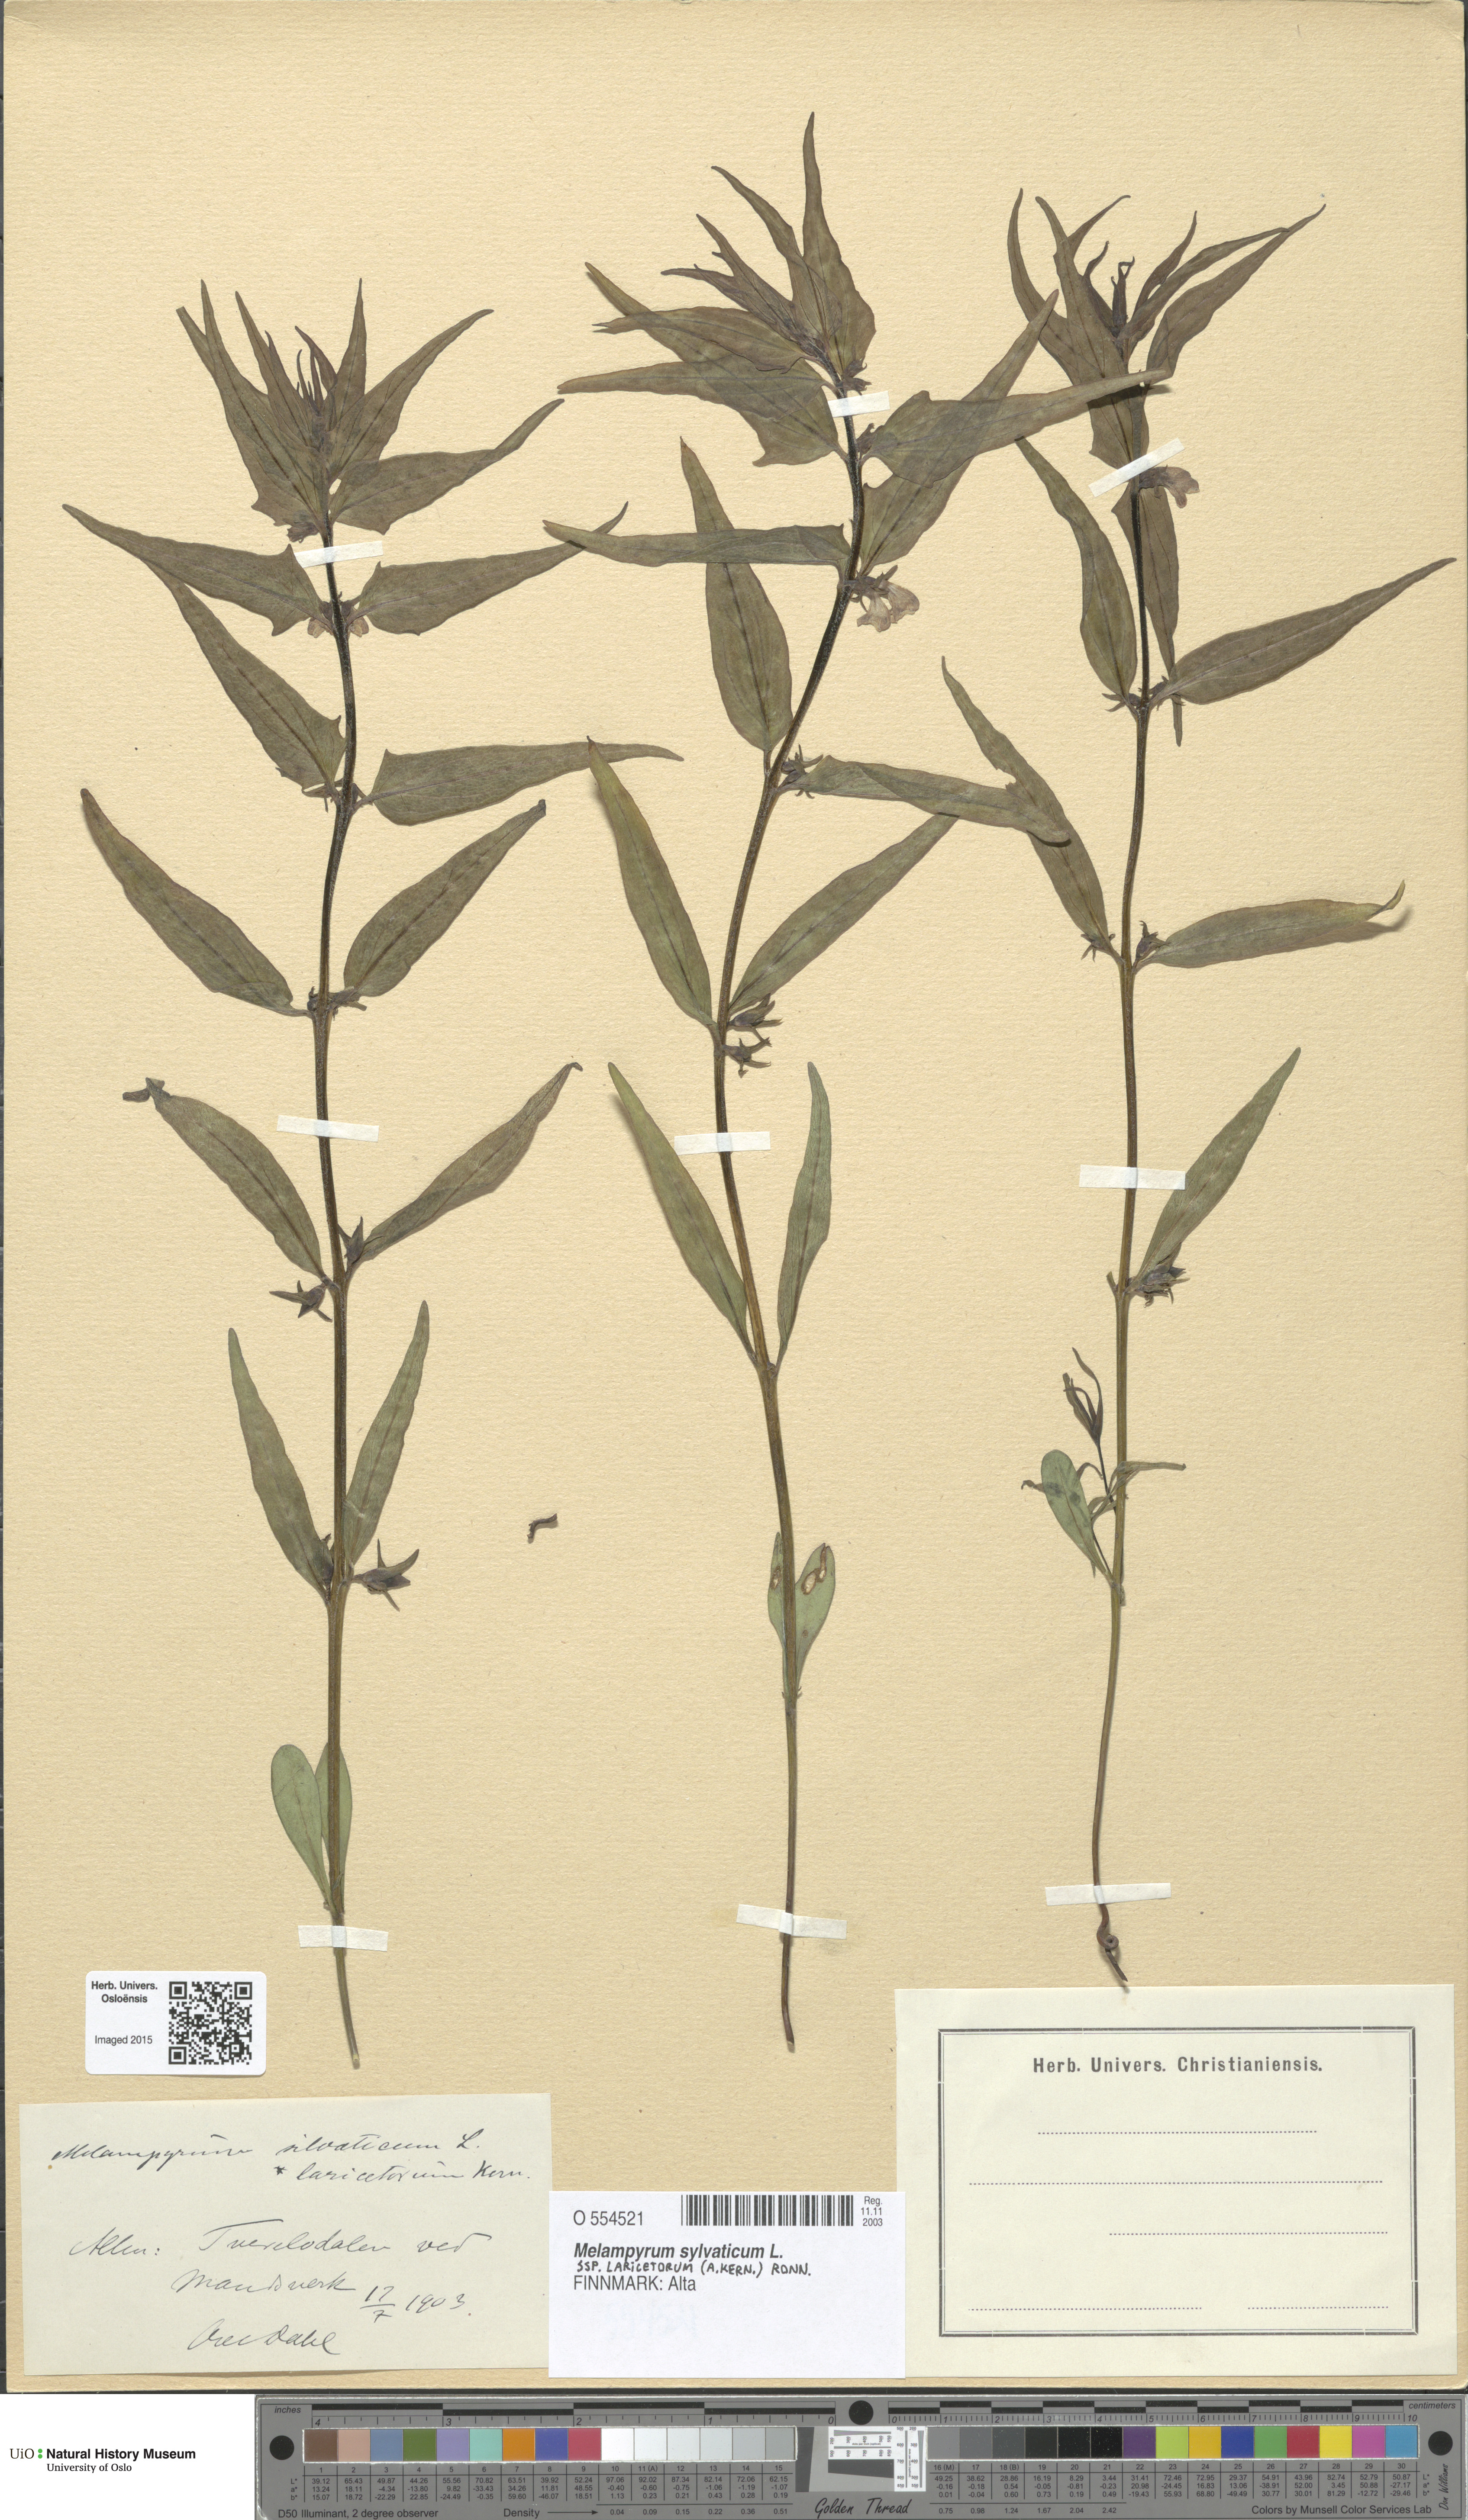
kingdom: Plantae
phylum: Tracheophyta
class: Magnoliopsida
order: Lamiales
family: Orobanchaceae
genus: Melampyrum
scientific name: Melampyrum sylvaticum
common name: Small cow-wheat
